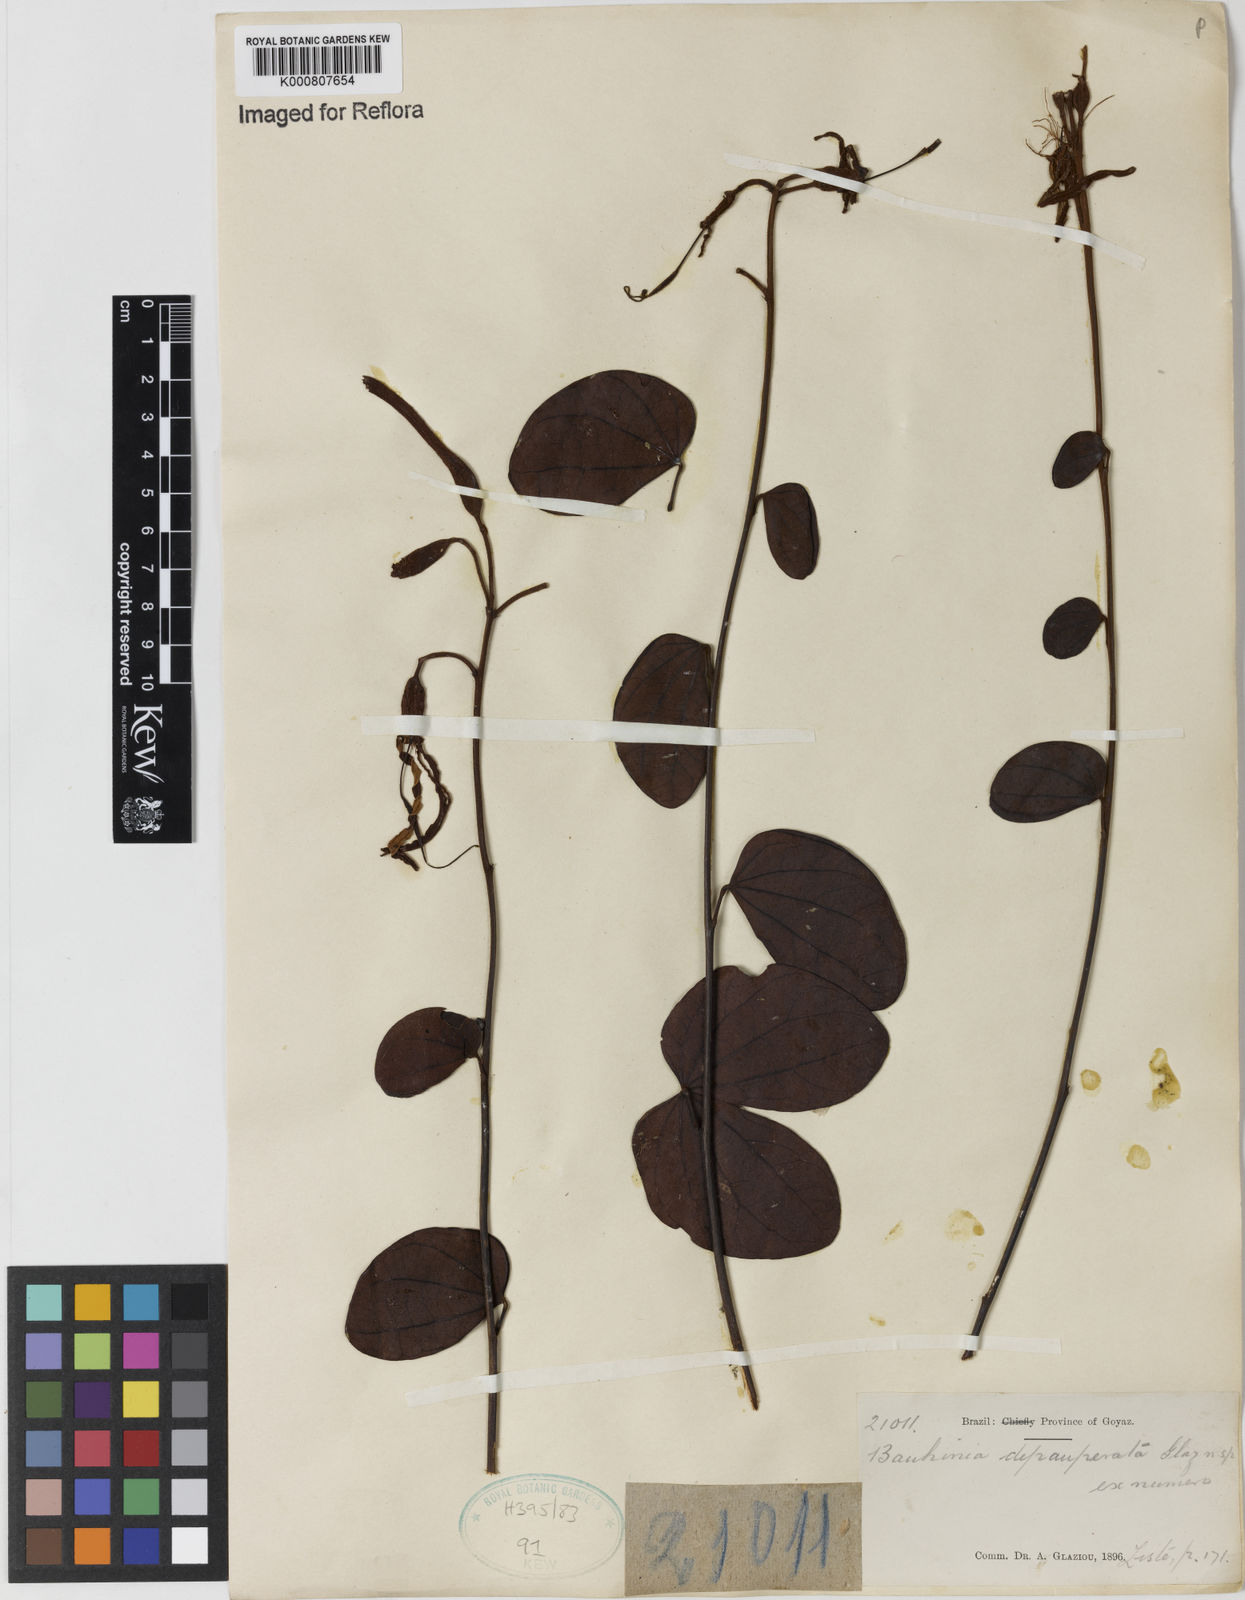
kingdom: Plantae
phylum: Tracheophyta
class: Magnoliopsida
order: Fabales
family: Fabaceae
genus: Bauhinia
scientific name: Bauhinia depauperata
